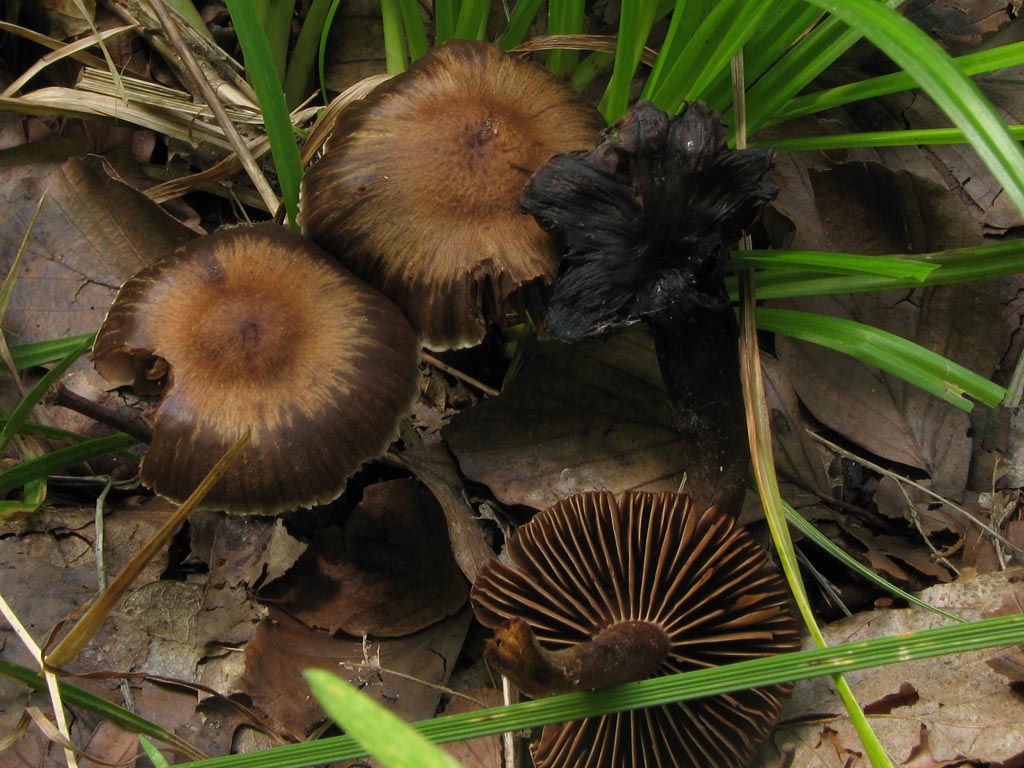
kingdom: Fungi
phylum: Basidiomycota
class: Agaricomycetes
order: Agaricales
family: Cortinariaceae
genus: Cortinarius
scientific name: Cortinarius alboadustus
